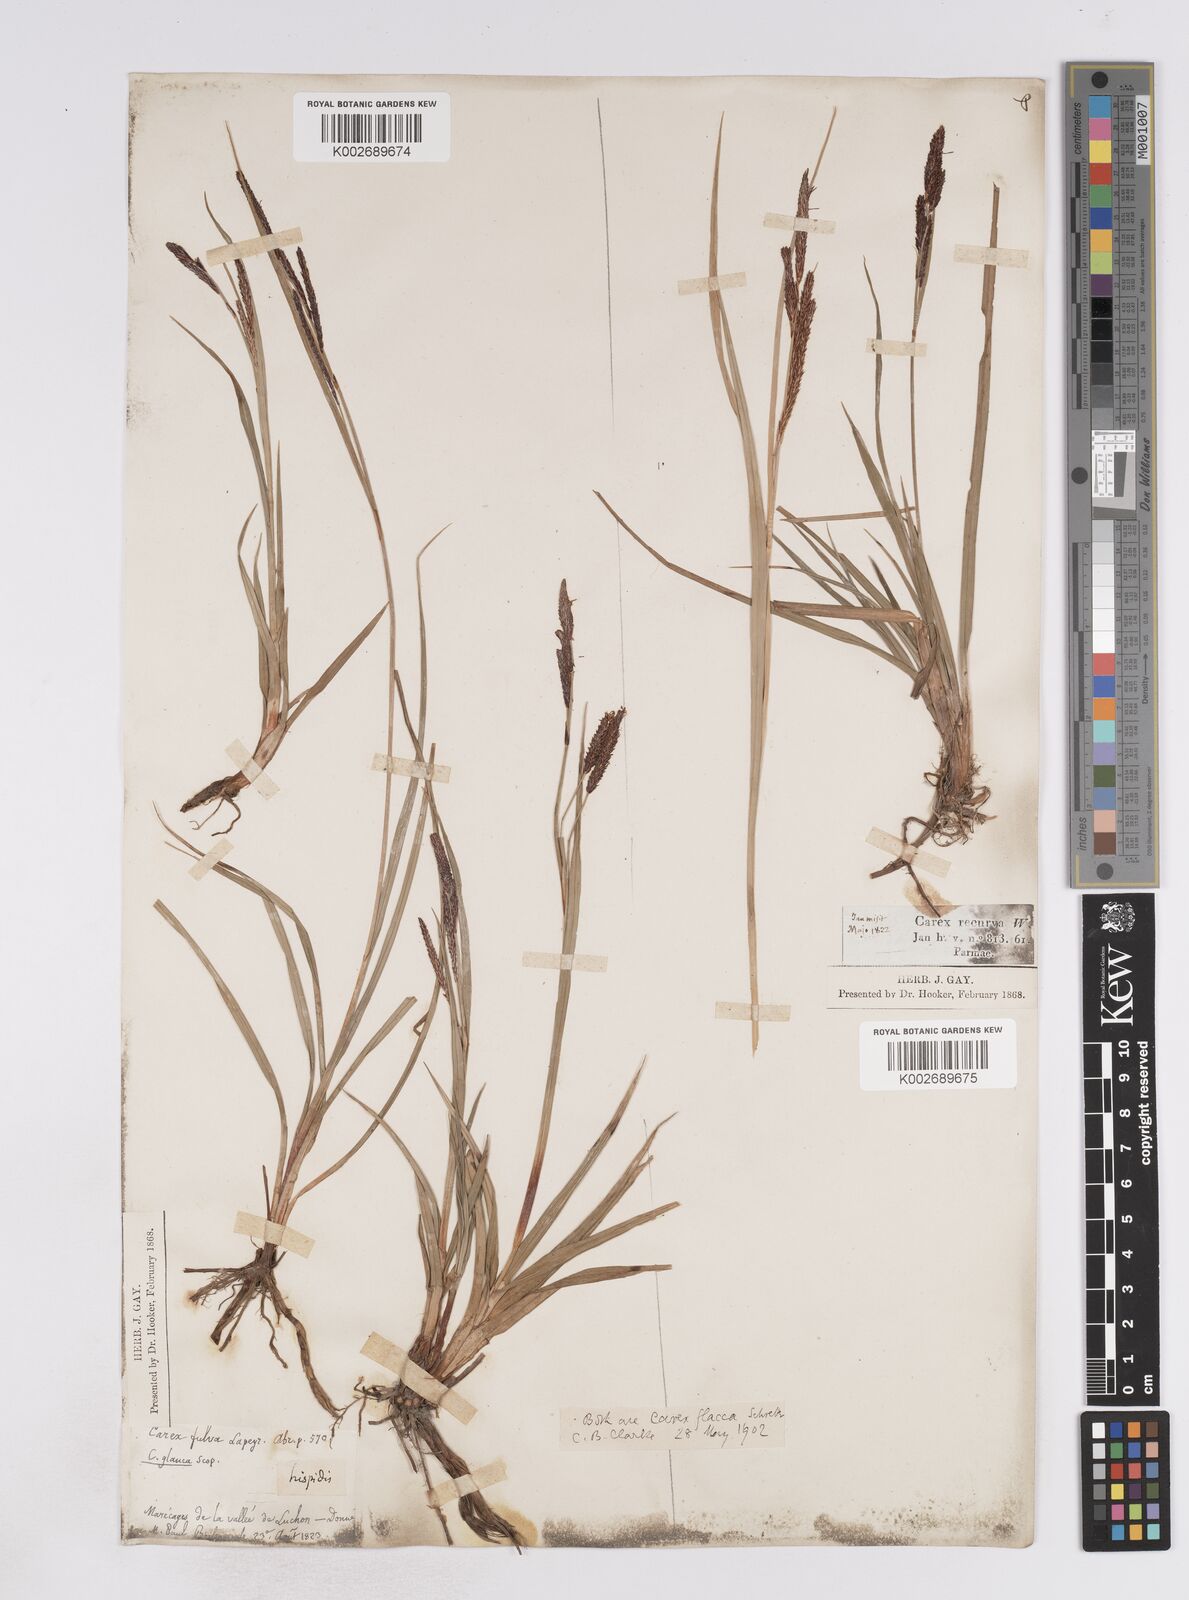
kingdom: Plantae
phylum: Tracheophyta
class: Liliopsida
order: Poales
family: Cyperaceae
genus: Carex
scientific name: Carex flacca
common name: Glaucous sedge
